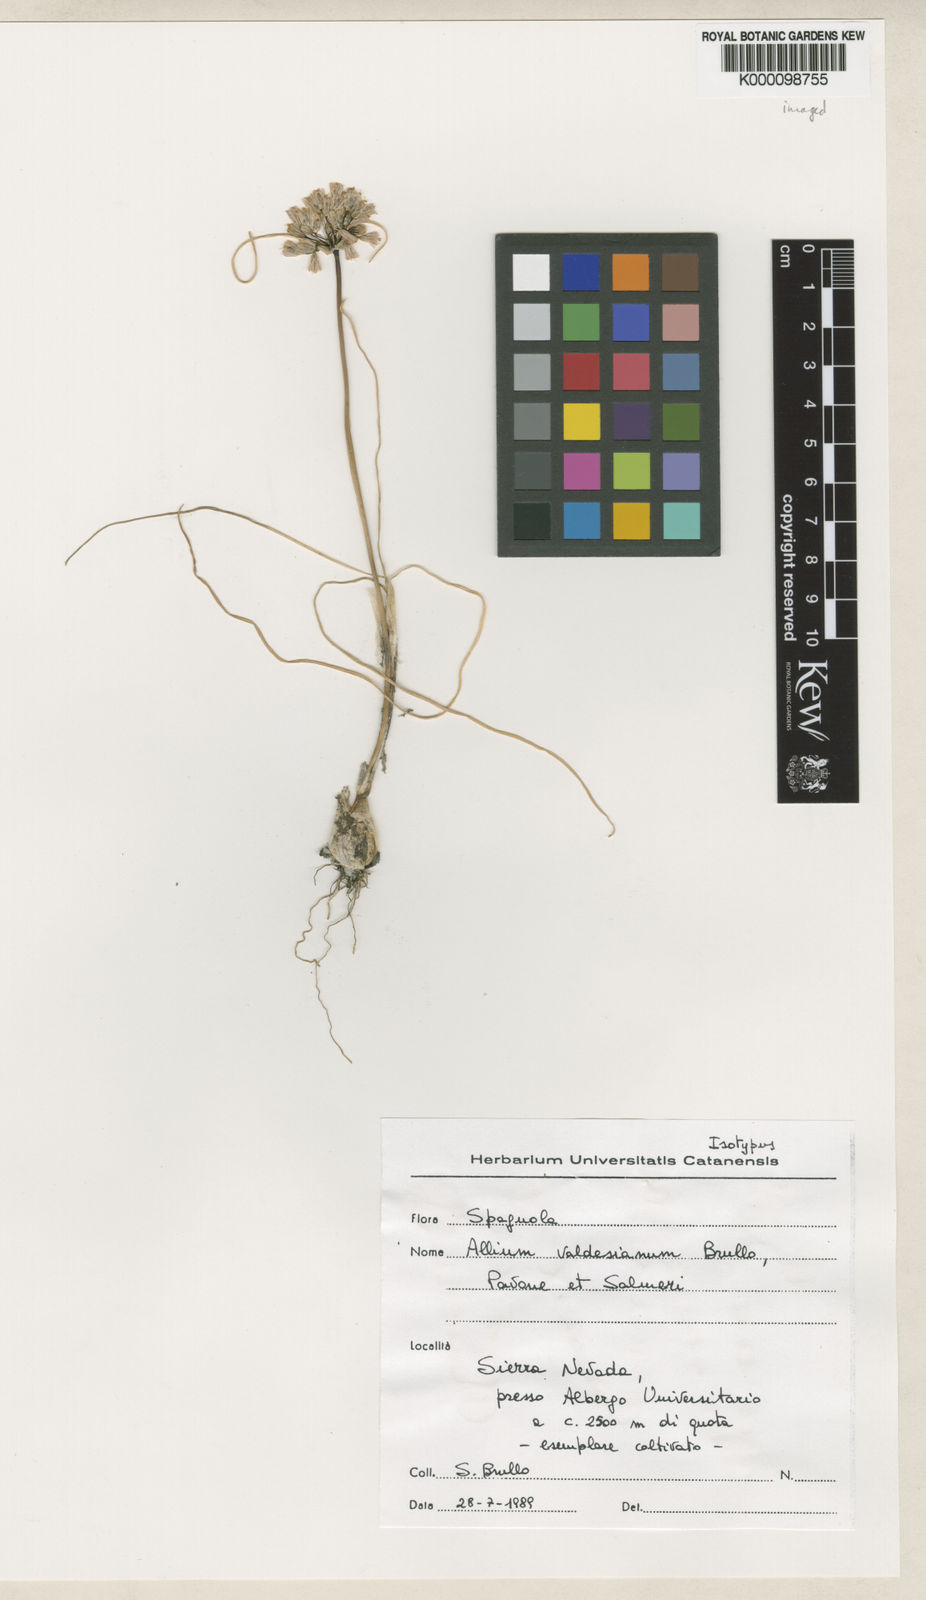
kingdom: Plantae
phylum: Tracheophyta
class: Liliopsida
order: Asparagales
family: Amaryllidaceae
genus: Allium
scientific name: Allium valdesianum
